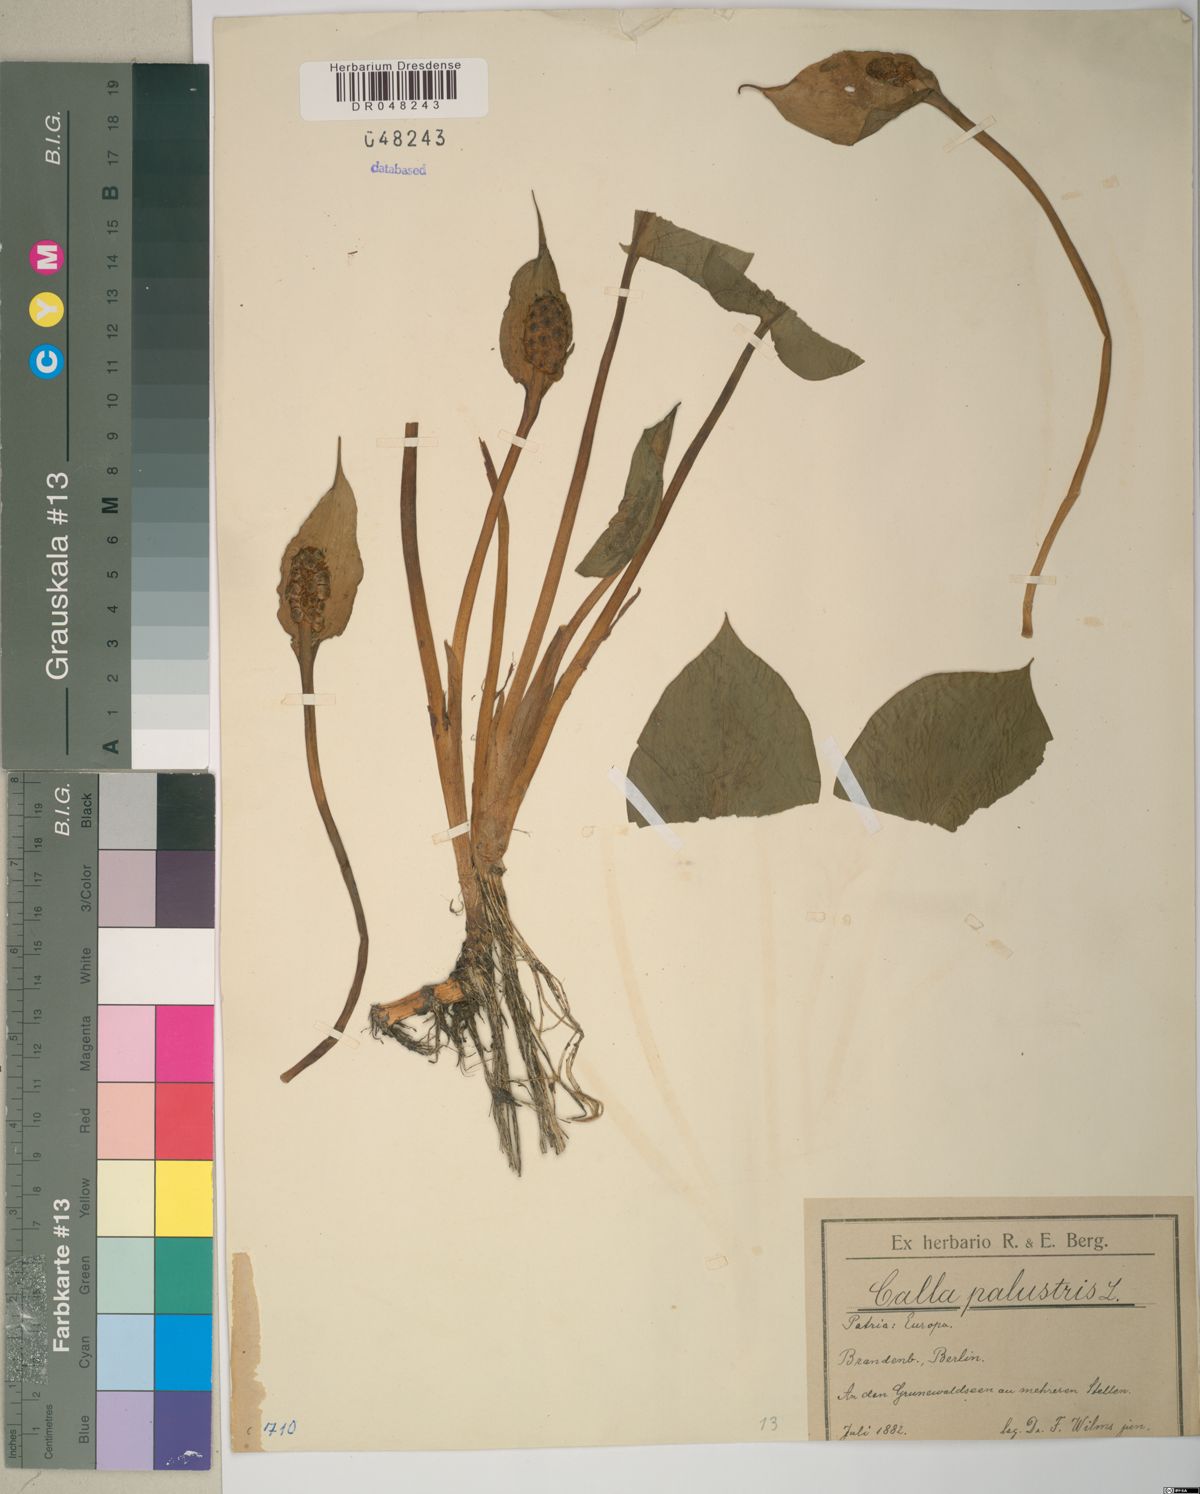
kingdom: Plantae
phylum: Tracheophyta
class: Liliopsida
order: Alismatales
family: Araceae
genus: Calla
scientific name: Calla palustris
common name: Bog arum
